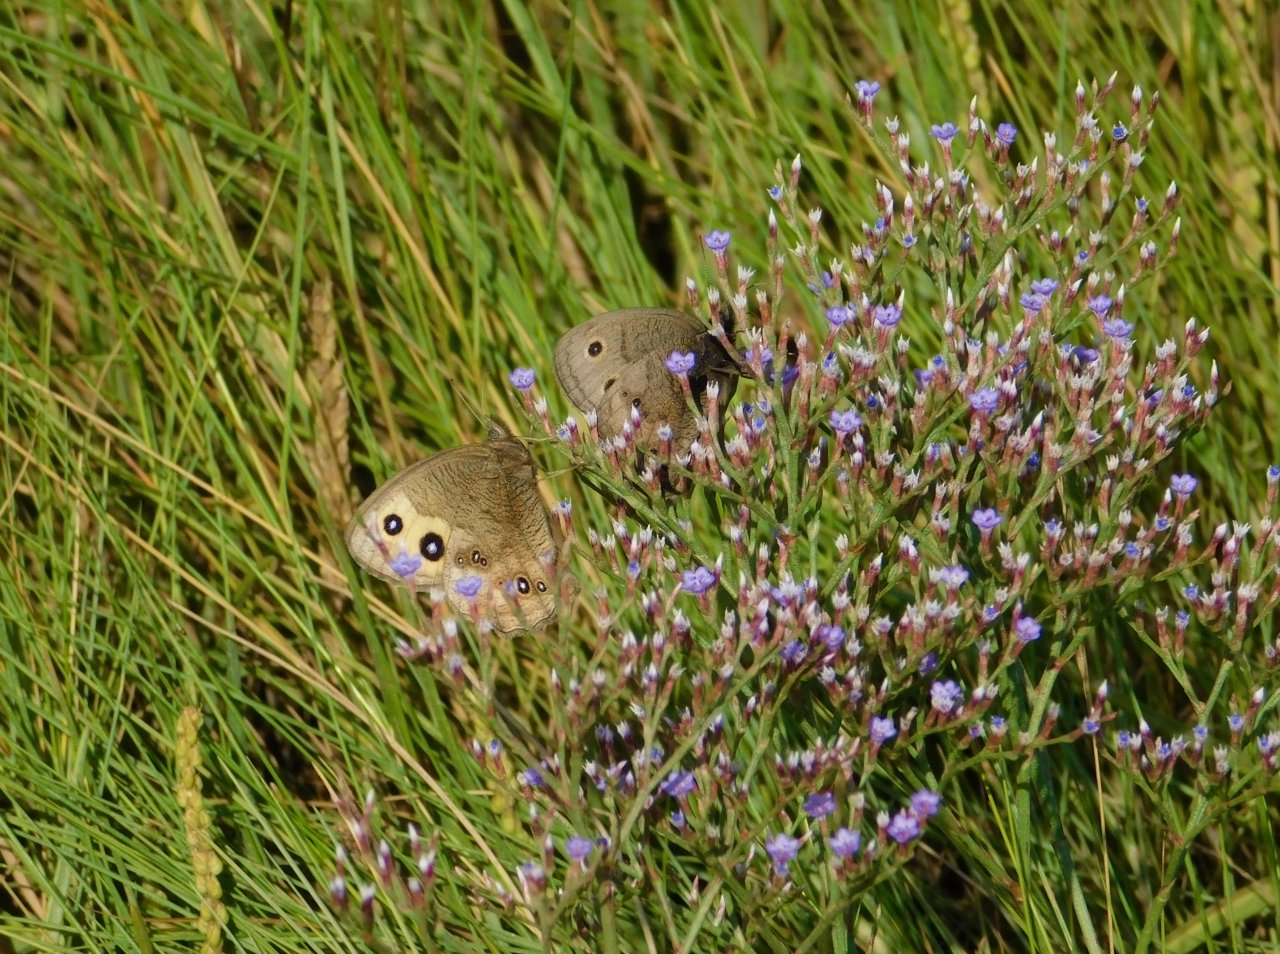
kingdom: Animalia
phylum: Arthropoda
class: Insecta
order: Lepidoptera
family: Nymphalidae
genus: Cercyonis
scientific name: Cercyonis pegala
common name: Common Wood-Nymph
